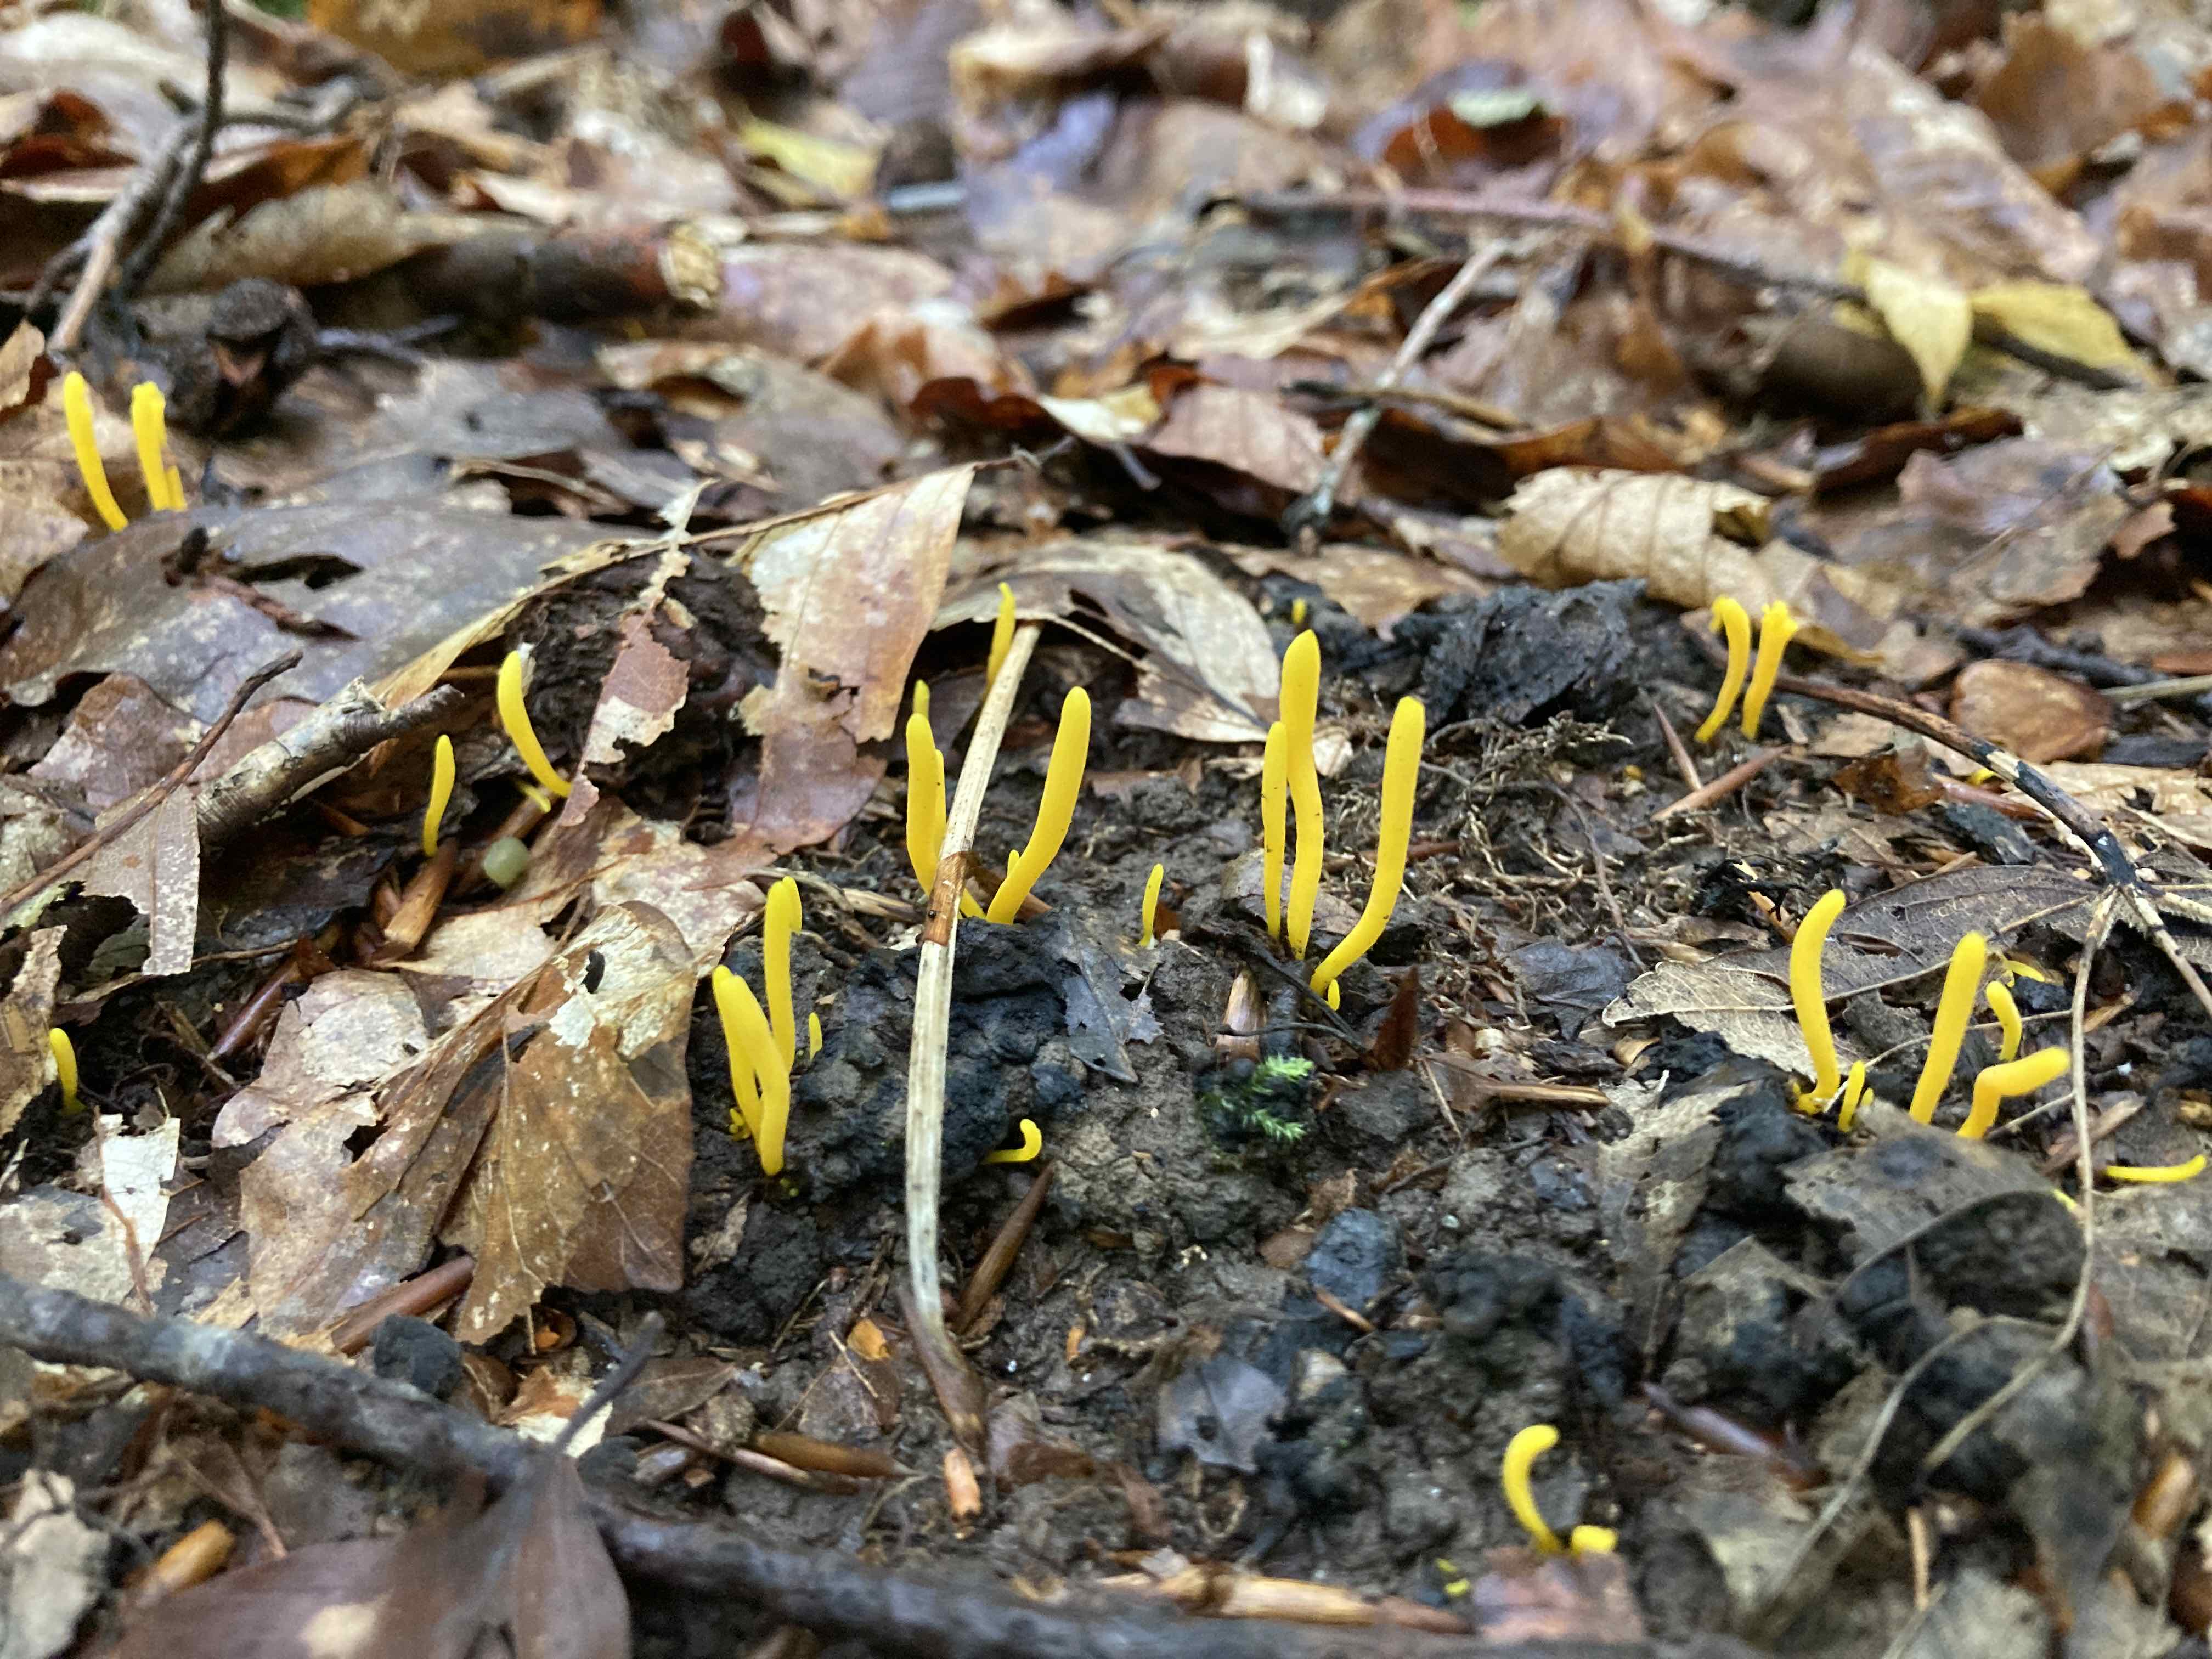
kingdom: Fungi
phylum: Basidiomycota
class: Agaricomycetes
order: Agaricales
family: Clavariaceae
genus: Clavulinopsis
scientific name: Clavulinopsis helvola
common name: orangegul køllesvamp
